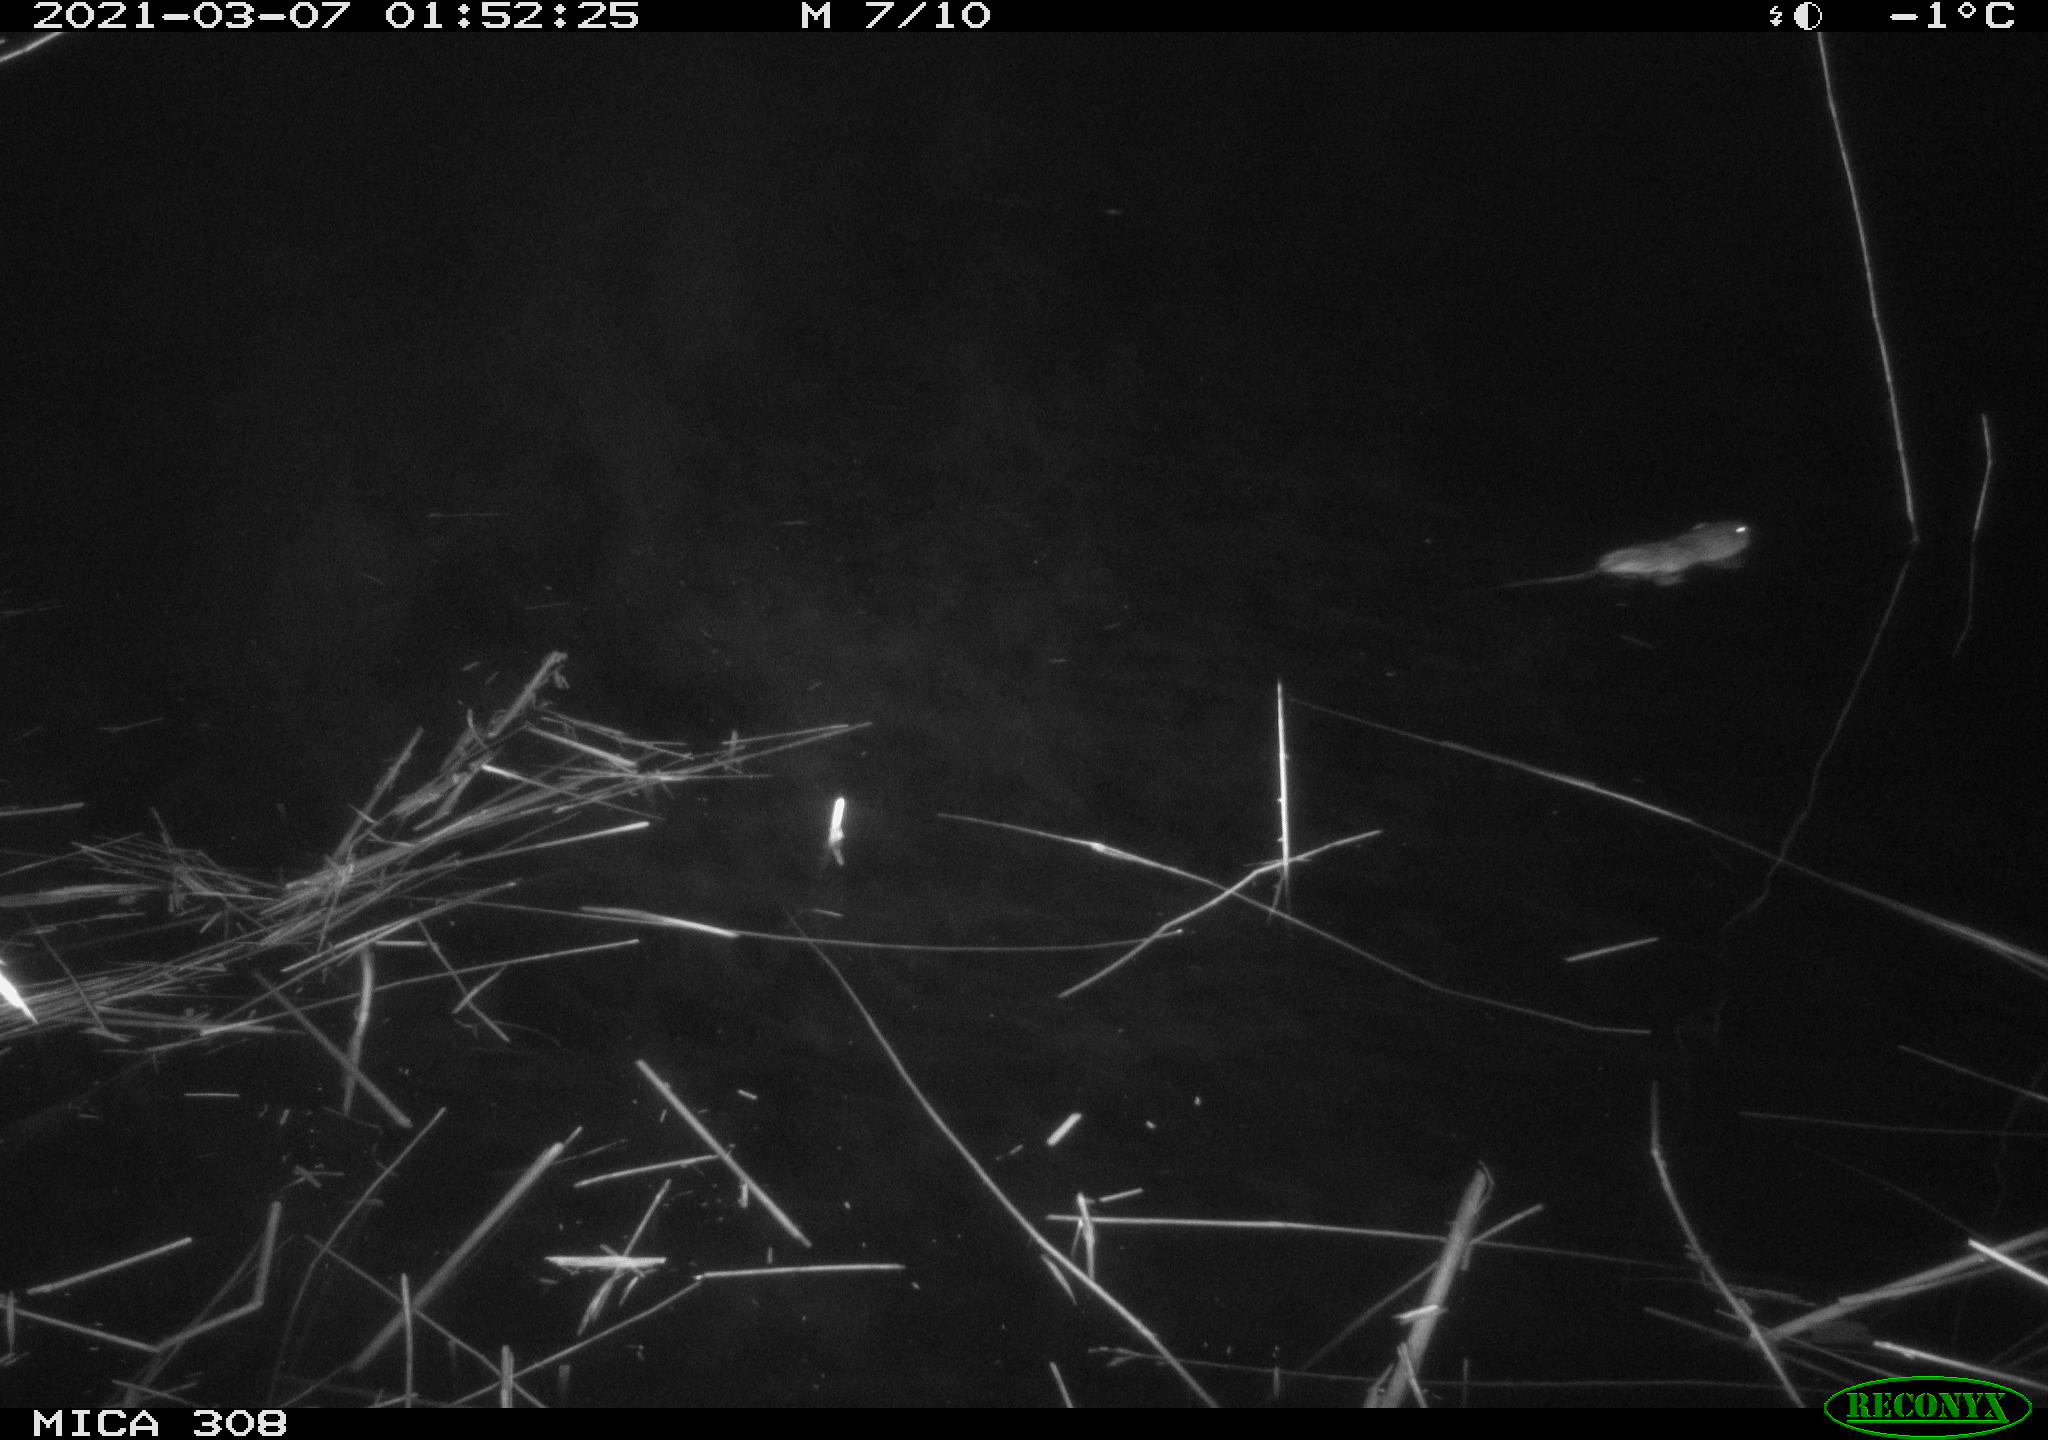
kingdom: Animalia
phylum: Chordata
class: Mammalia
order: Rodentia
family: Cricetidae
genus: Ondatra
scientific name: Ondatra zibethicus
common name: Muskrat
